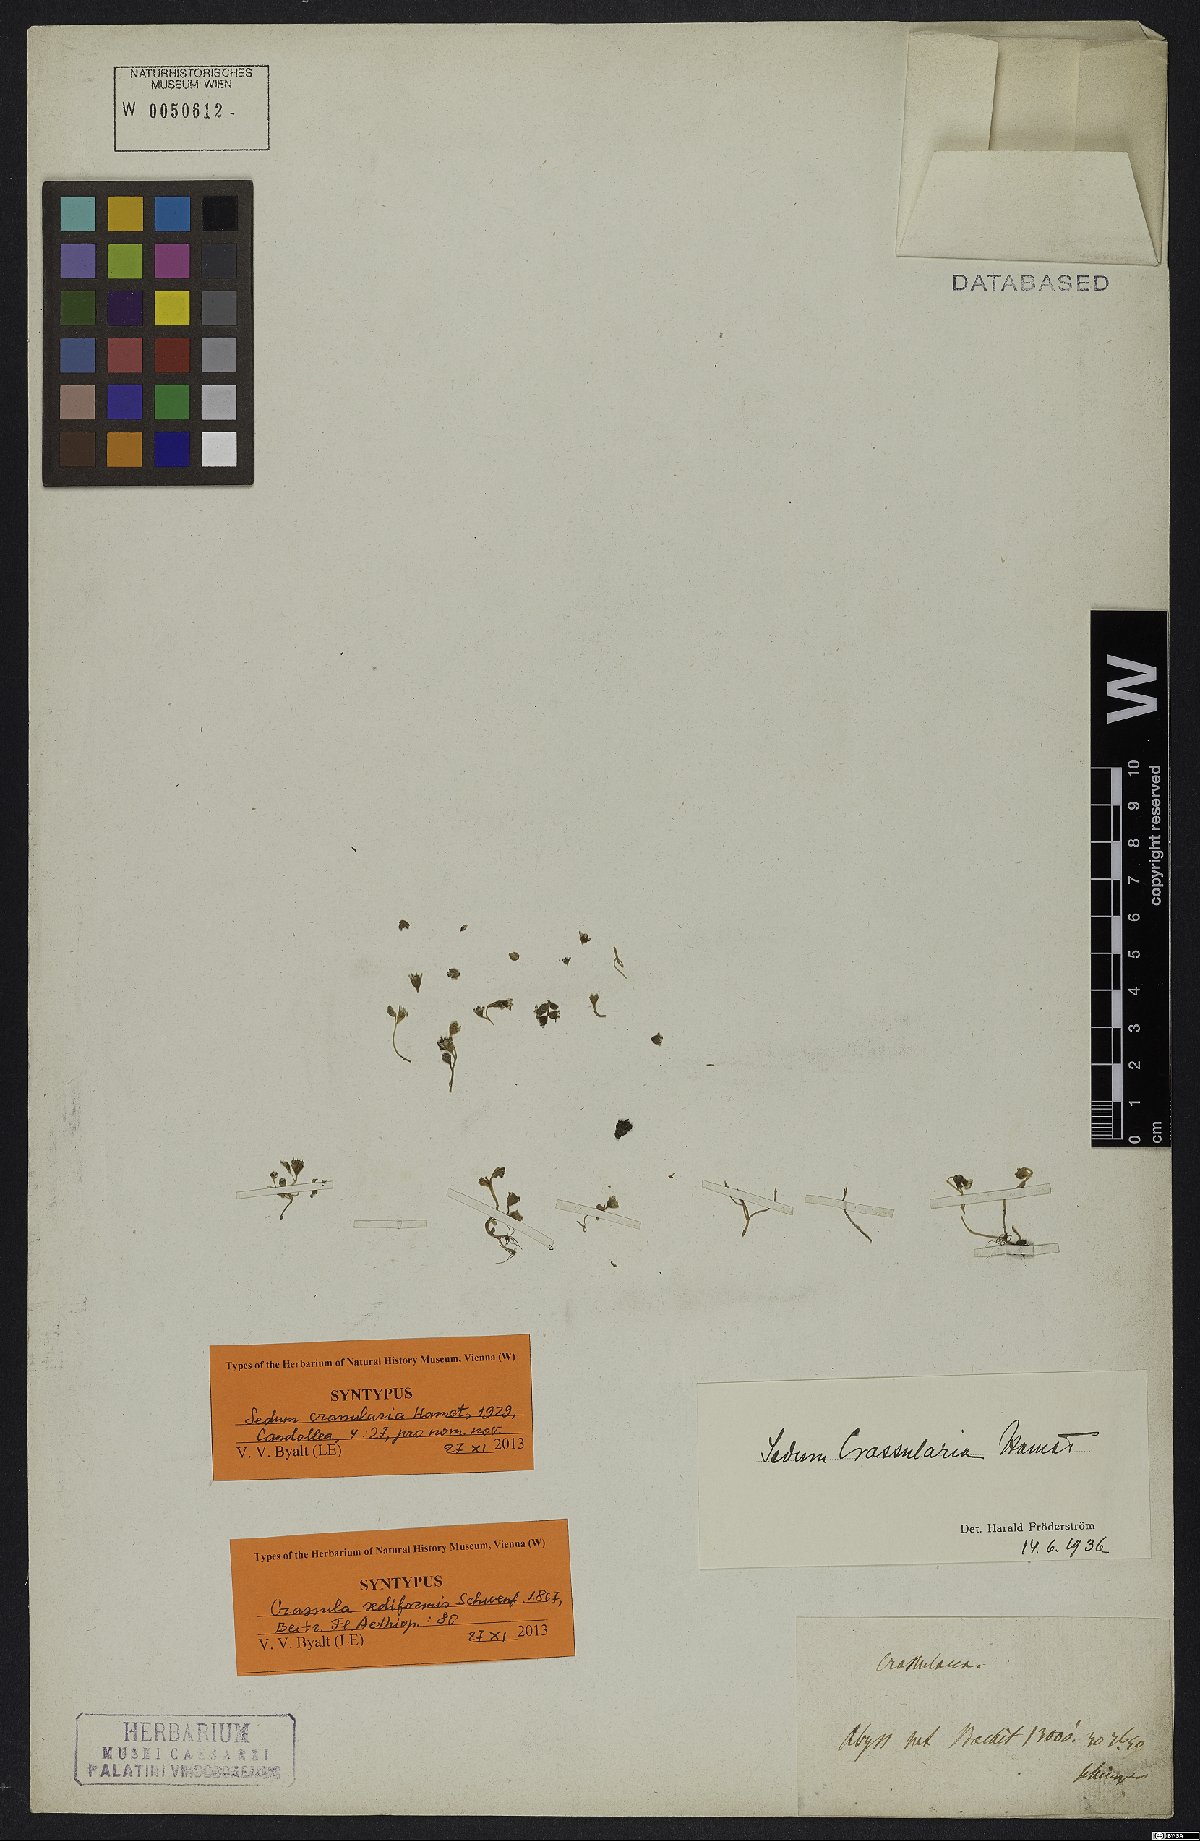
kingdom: Plantae
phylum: Tracheophyta
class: Magnoliopsida
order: Saxifragales
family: Crassulaceae
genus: Sedum
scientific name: Sedum crassularia
